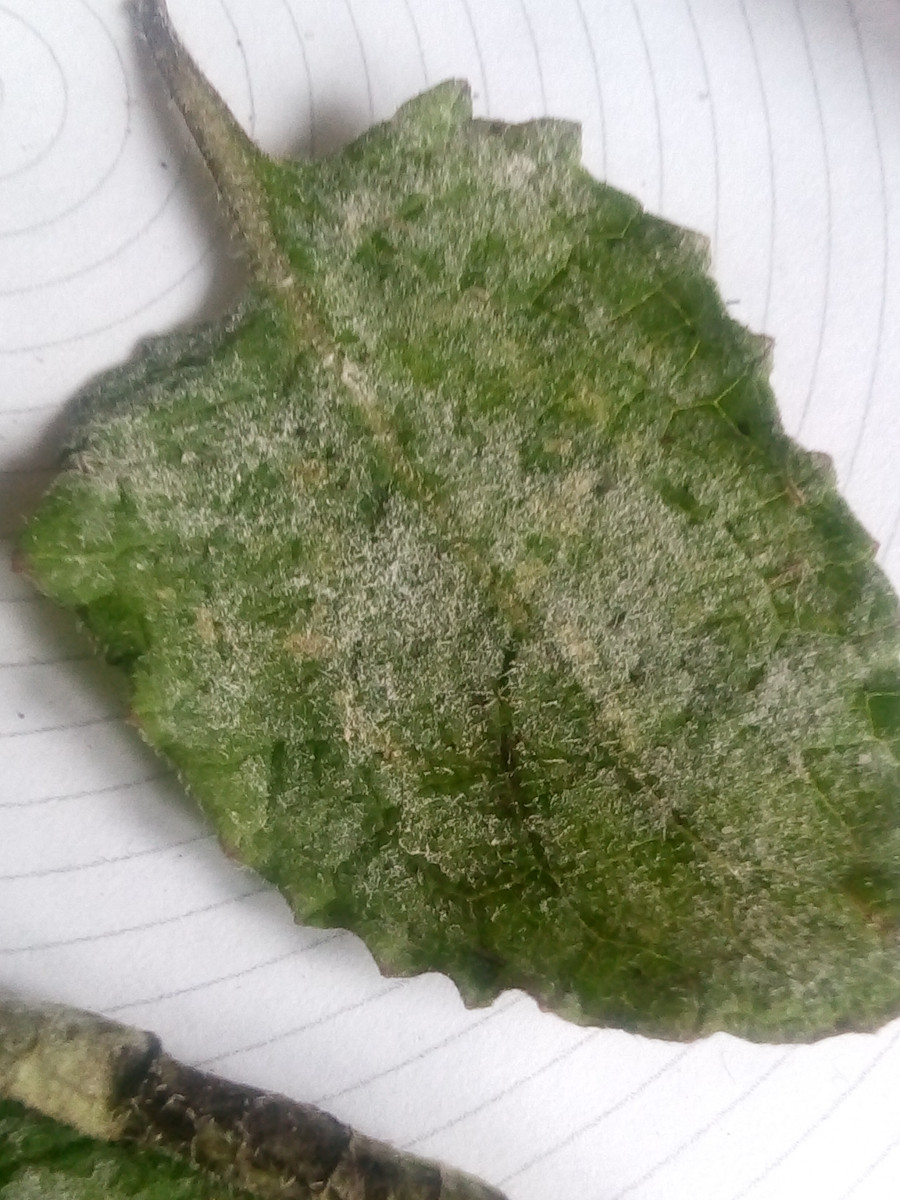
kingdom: Fungi
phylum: Ascomycota
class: Leotiomycetes
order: Helotiales
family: Erysiphaceae
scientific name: Erysiphaceae
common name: meldugfamilien
